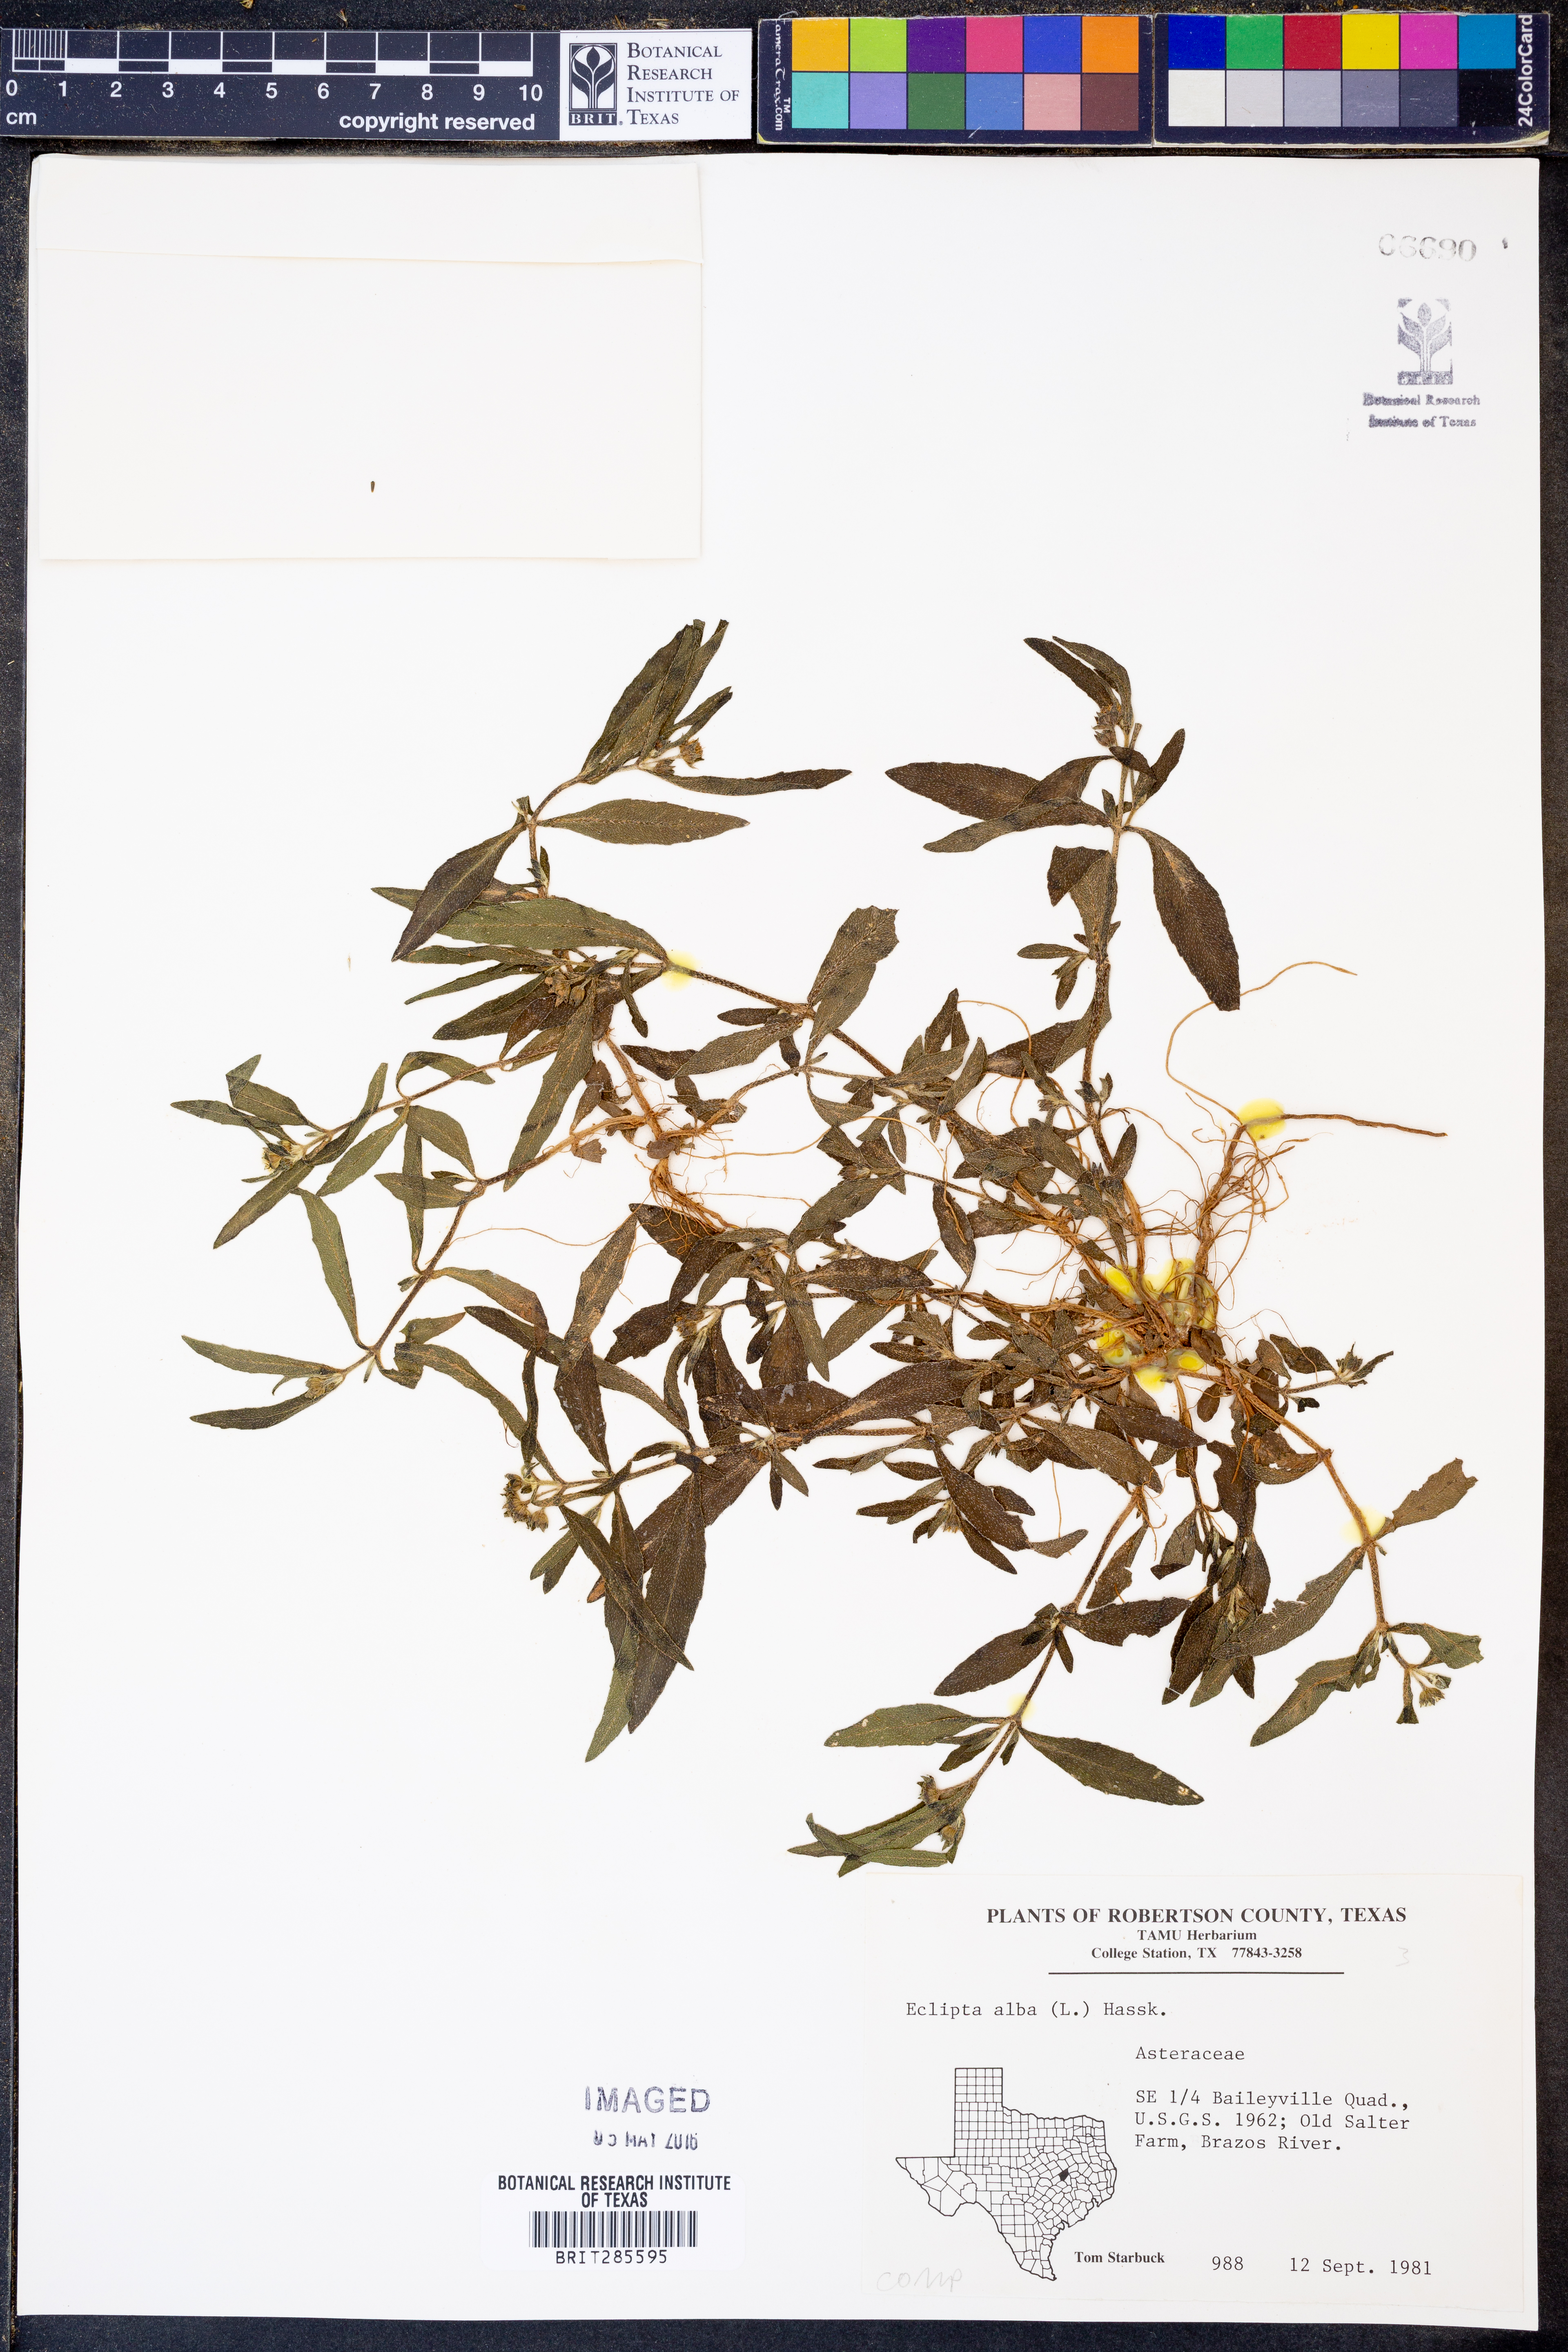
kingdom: Plantae
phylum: Tracheophyta
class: Magnoliopsida
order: Asterales
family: Asteraceae
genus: Eclipta
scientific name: Eclipta alba
